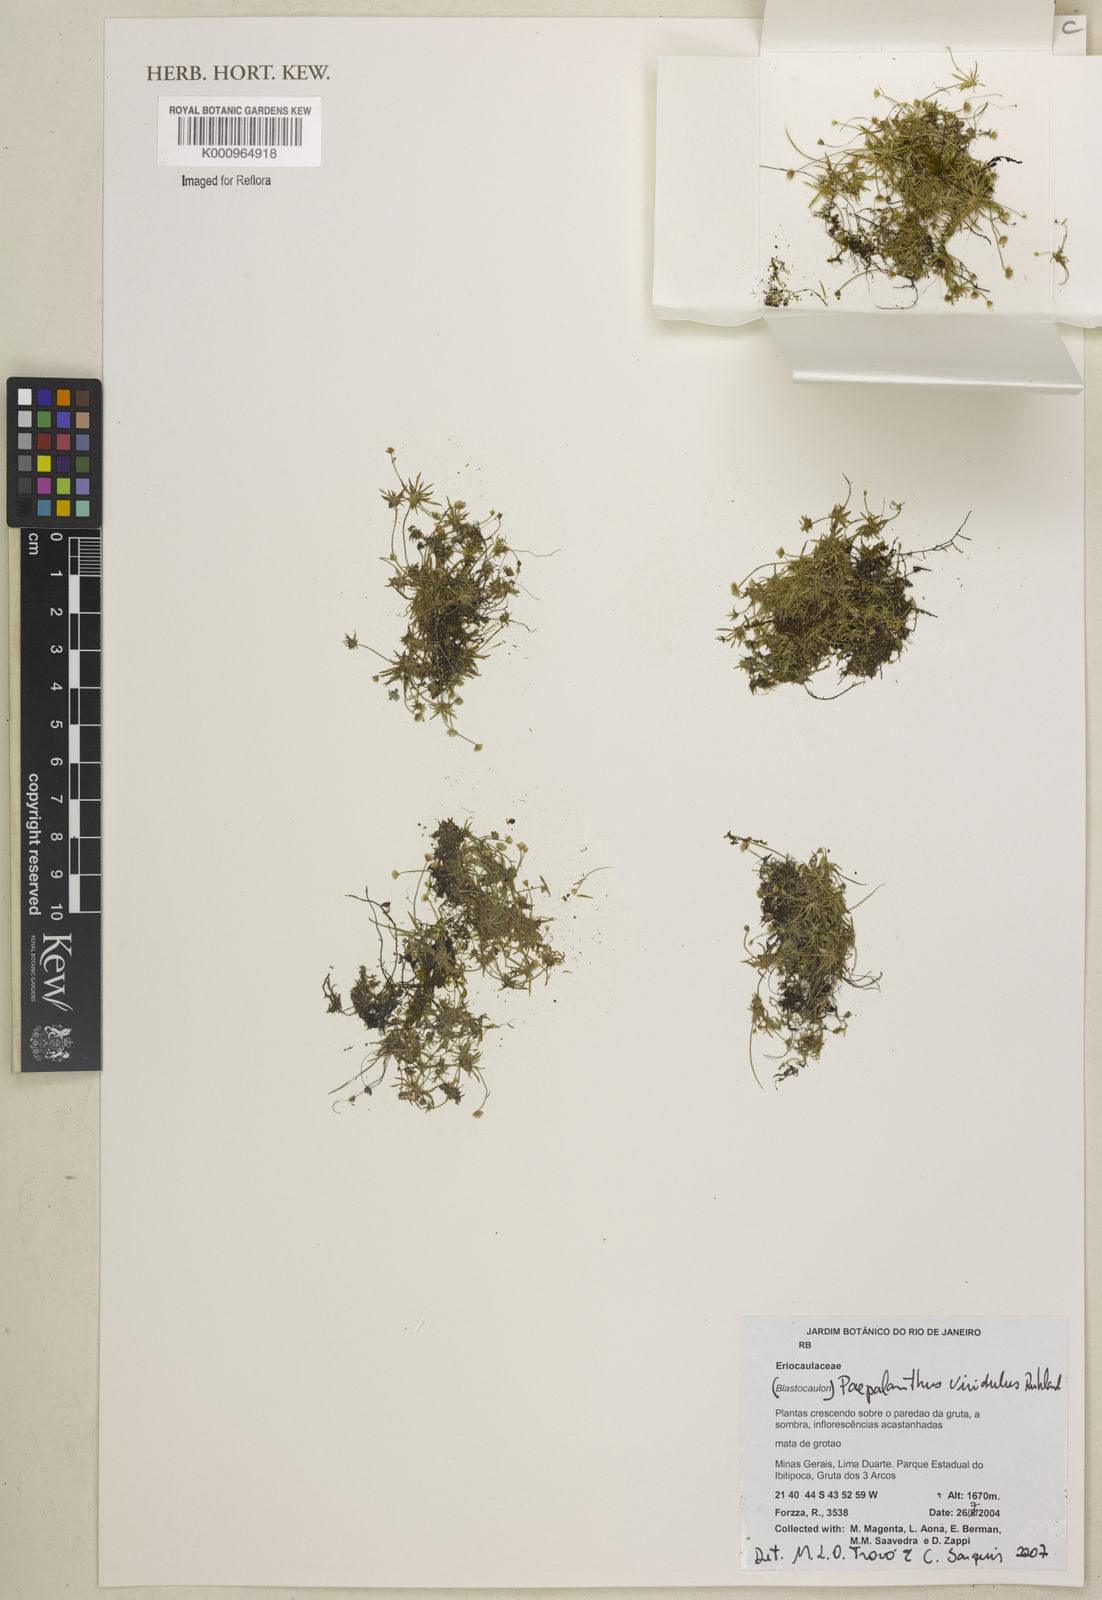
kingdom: Plantae
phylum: Tracheophyta
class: Liliopsida
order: Poales
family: Eriocaulaceae
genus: Paepalanthus
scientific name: Paepalanthus viridulus
